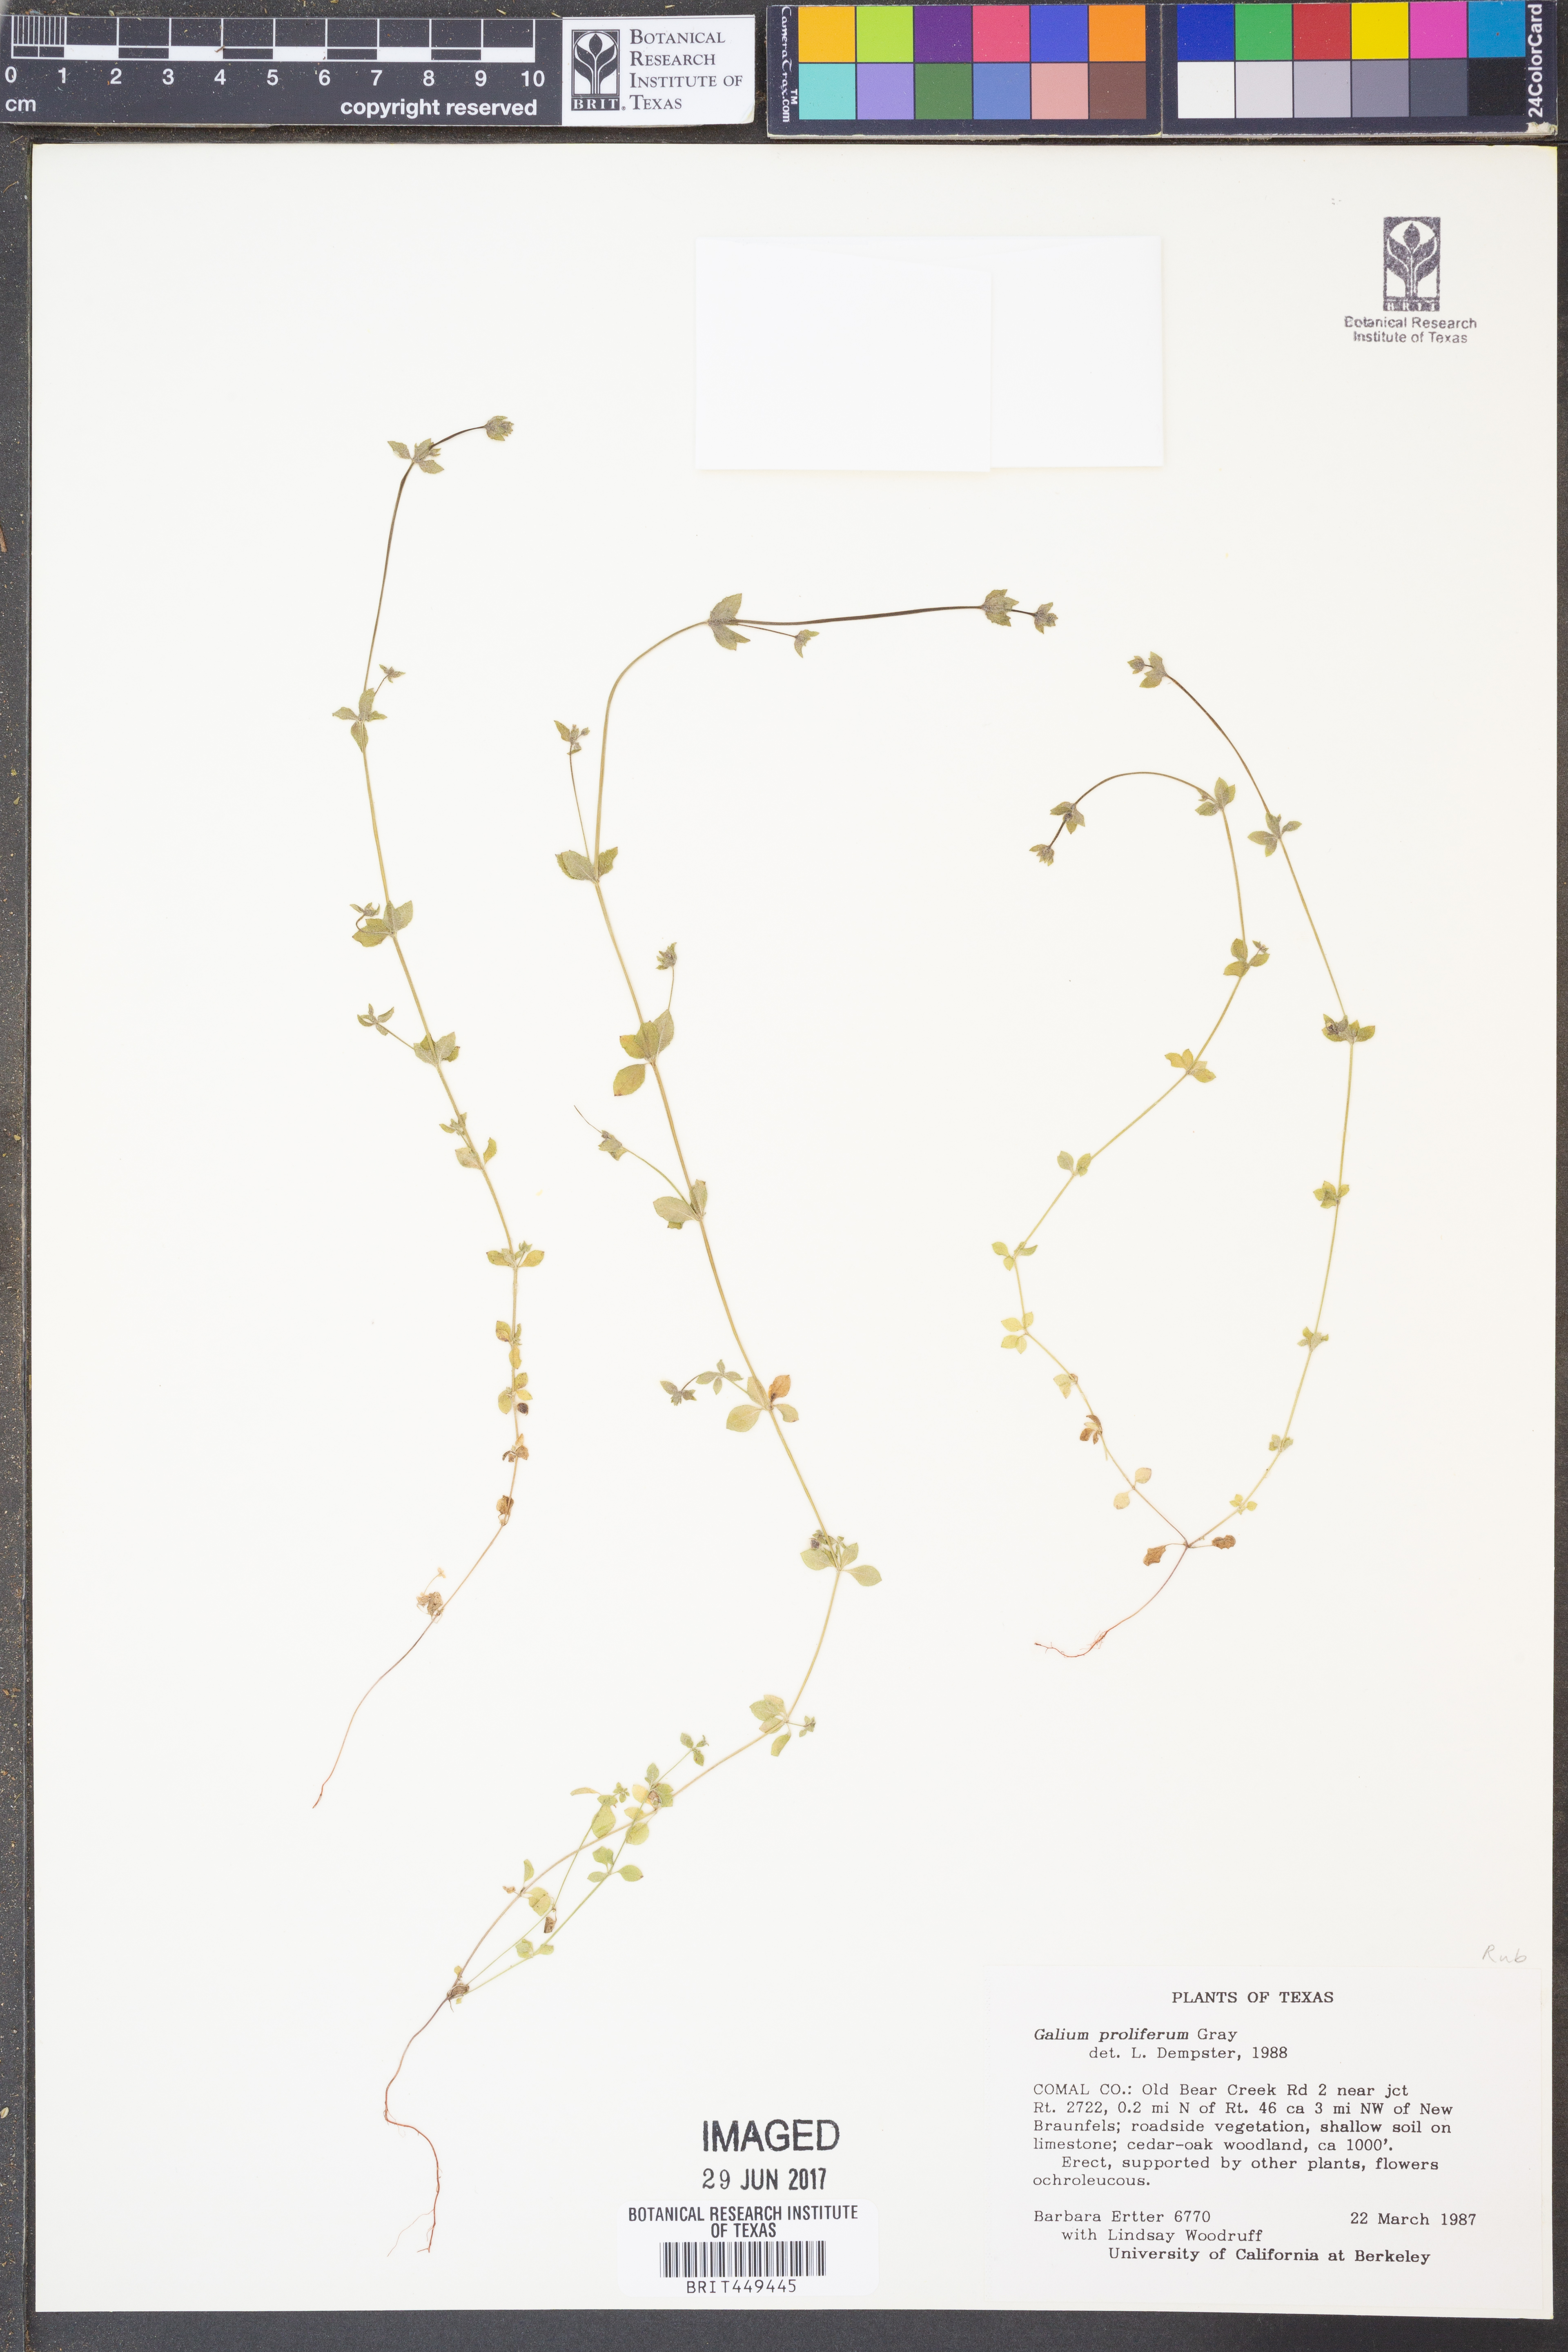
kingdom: Plantae
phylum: Tracheophyta
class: Magnoliopsida
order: Gentianales
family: Rubiaceae
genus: Galium
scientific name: Galium proliferum
